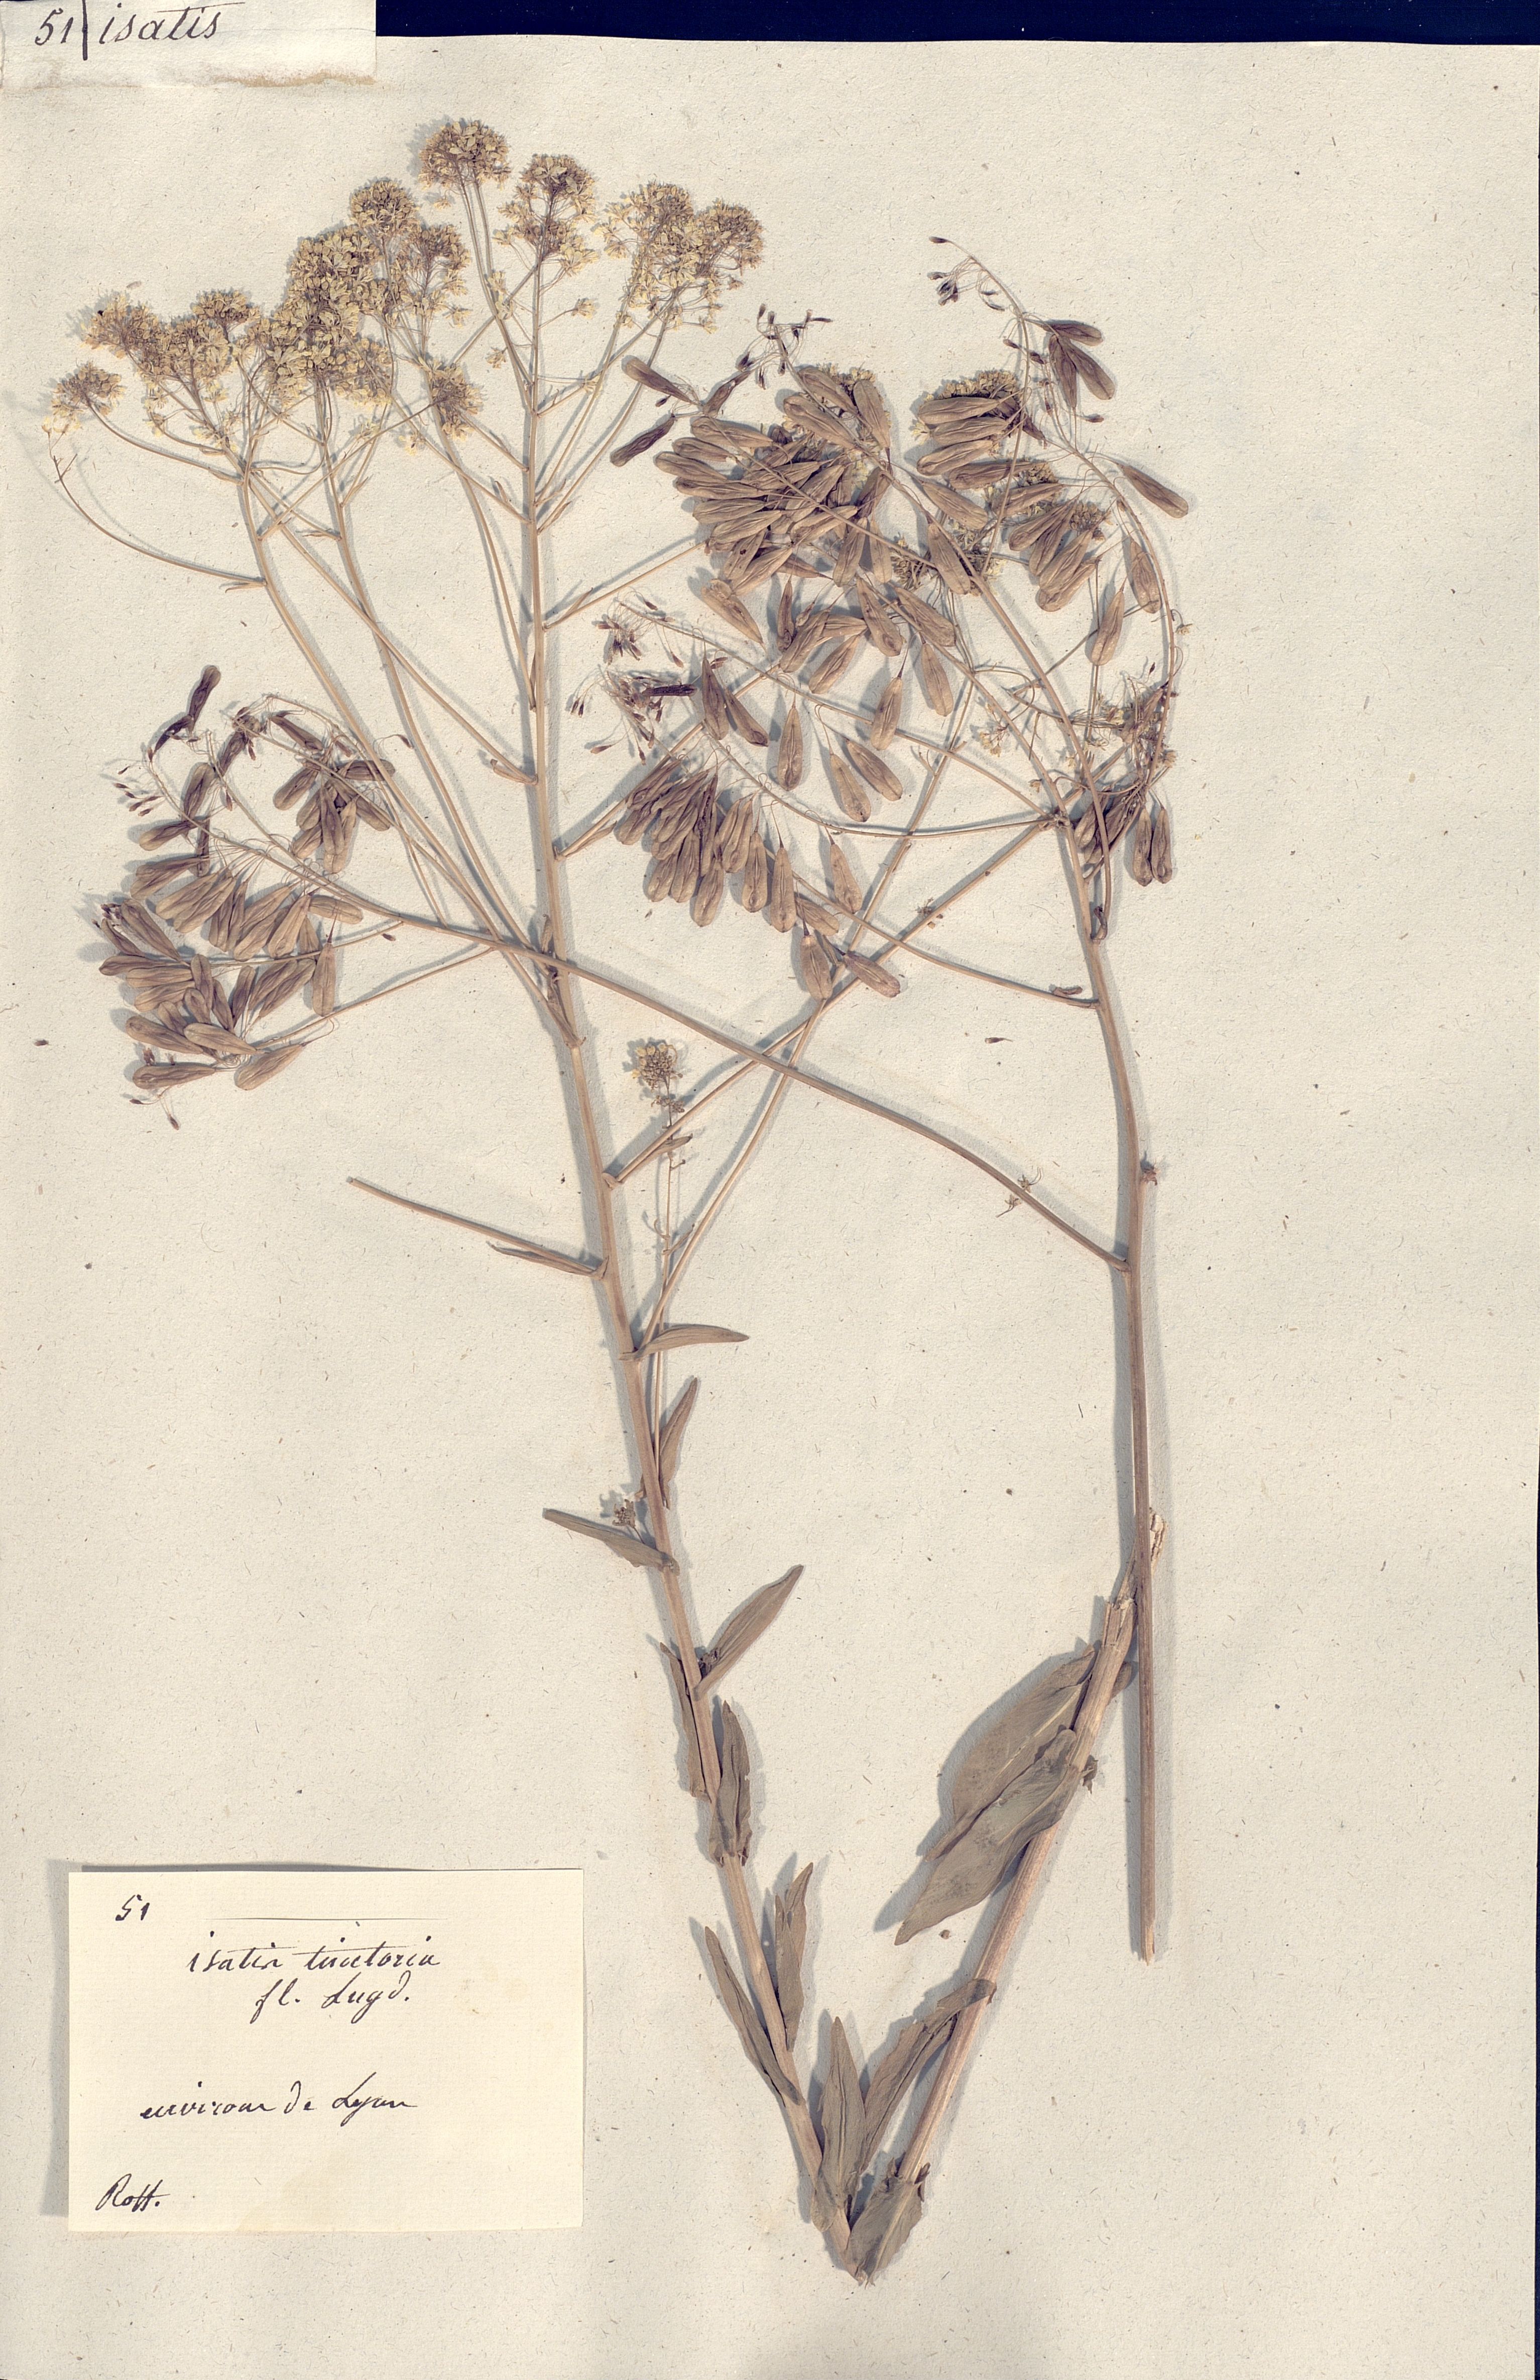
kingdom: Plantae
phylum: Tracheophyta
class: Magnoliopsida
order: Brassicales
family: Brassicaceae
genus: Isatis
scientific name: Isatis tinctoria
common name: Woad
